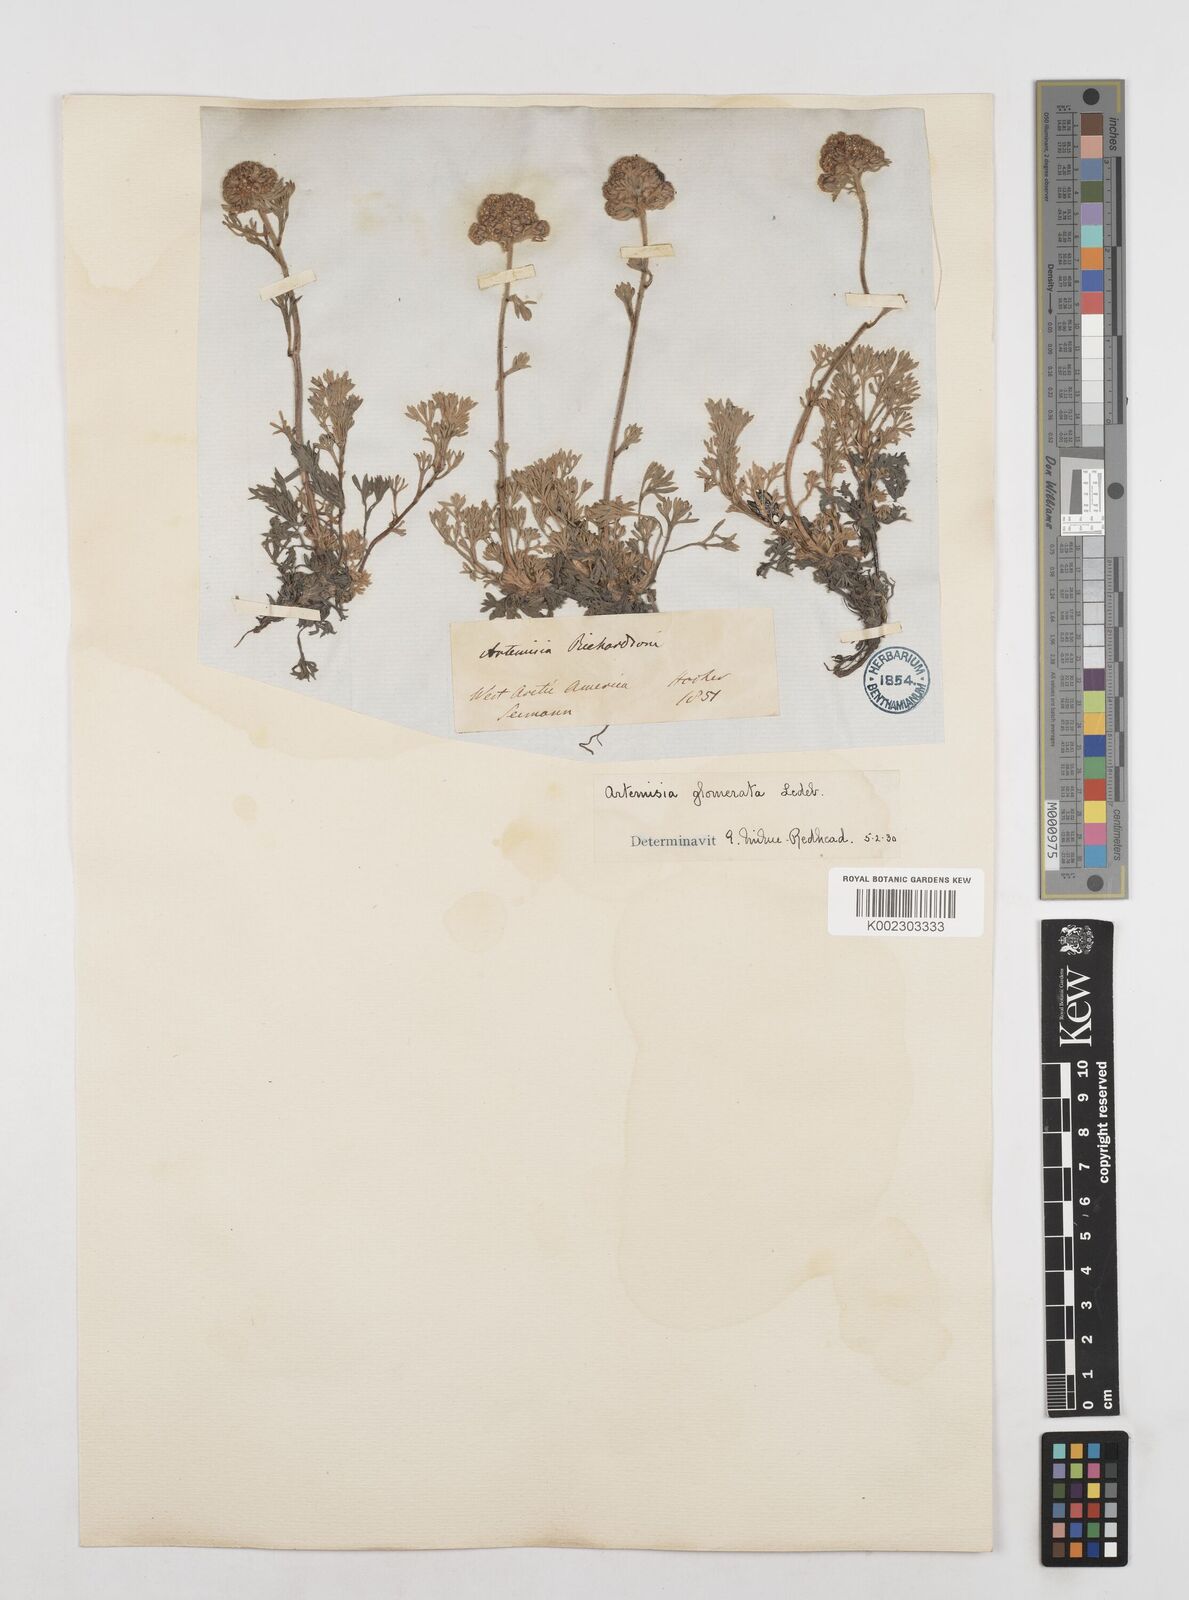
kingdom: Plantae
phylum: Tracheophyta
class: Magnoliopsida
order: Asterales
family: Asteraceae
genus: Artemisia
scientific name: Artemisia glomerata
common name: Pacific alpine wormwood
